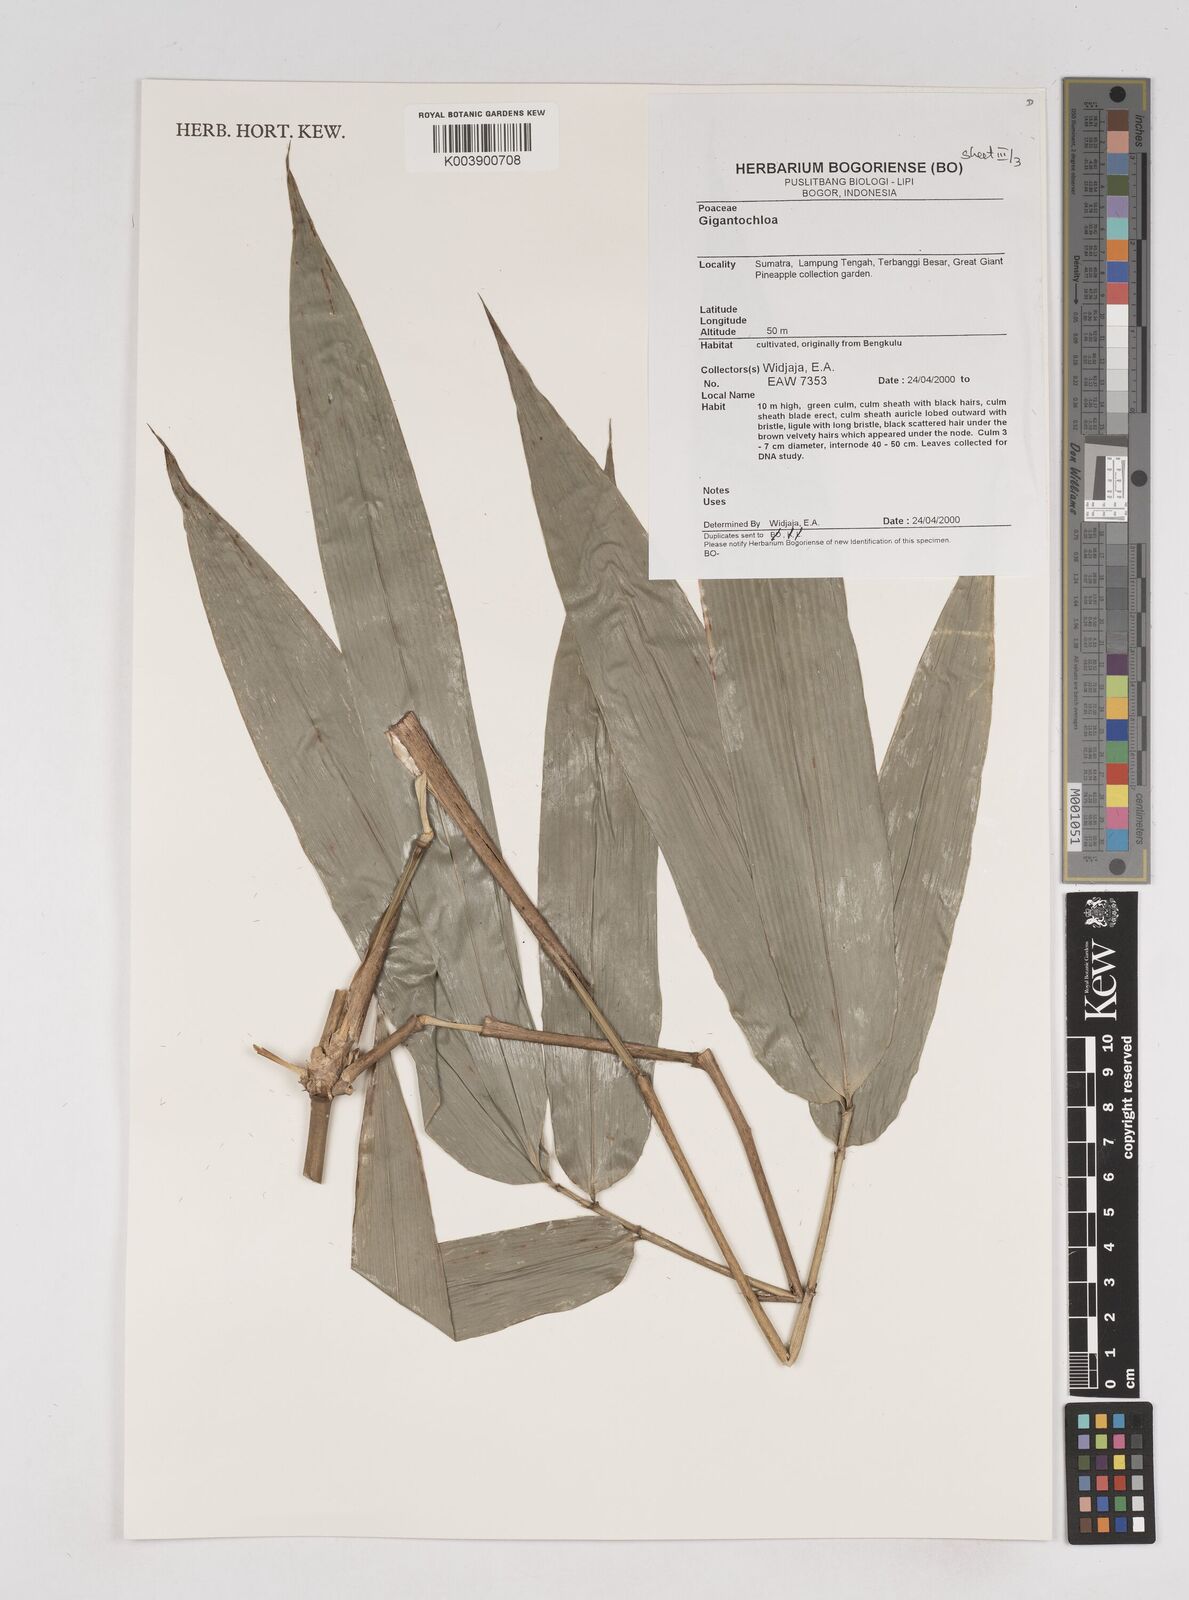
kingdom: Plantae
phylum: Tracheophyta
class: Liliopsida
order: Poales
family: Poaceae
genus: Gigantochloa
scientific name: Gigantochloa
